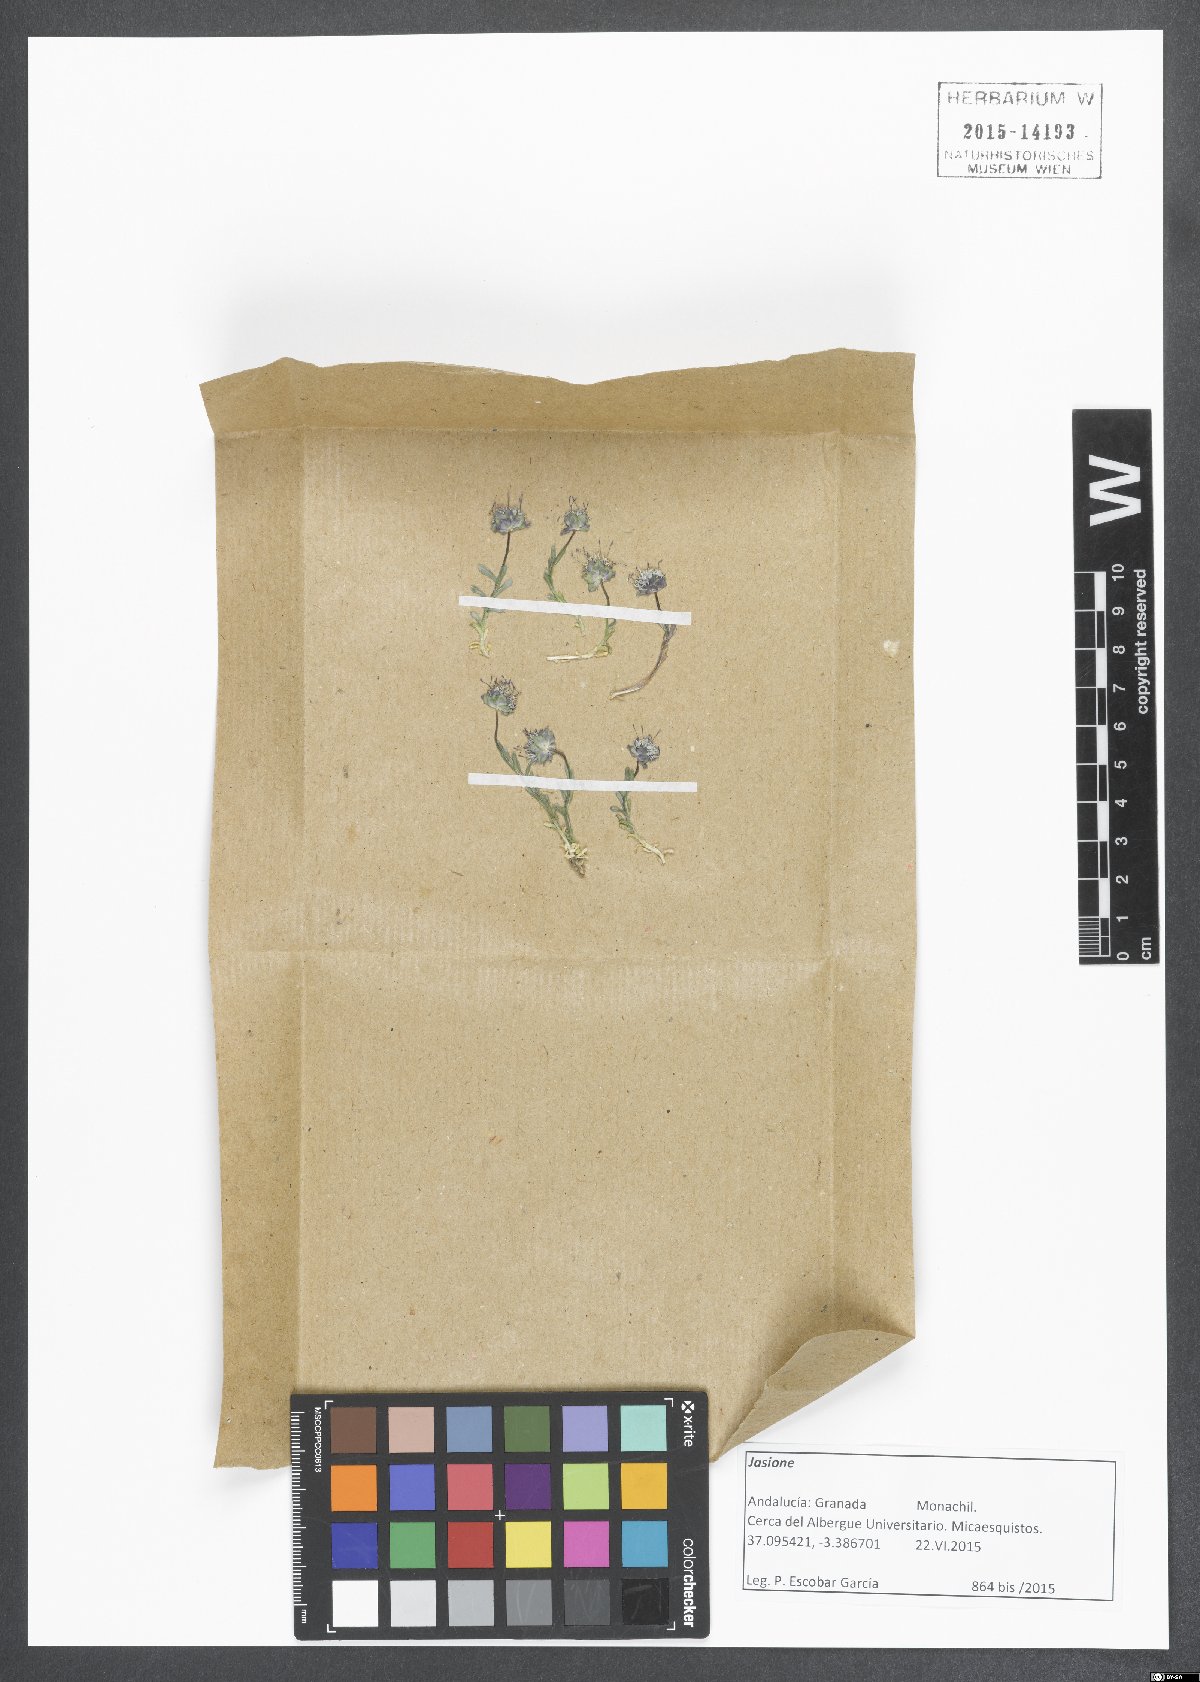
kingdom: Plantae
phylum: Tracheophyta
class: Magnoliopsida
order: Asterales
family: Campanulaceae
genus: Jasione
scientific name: Jasione
